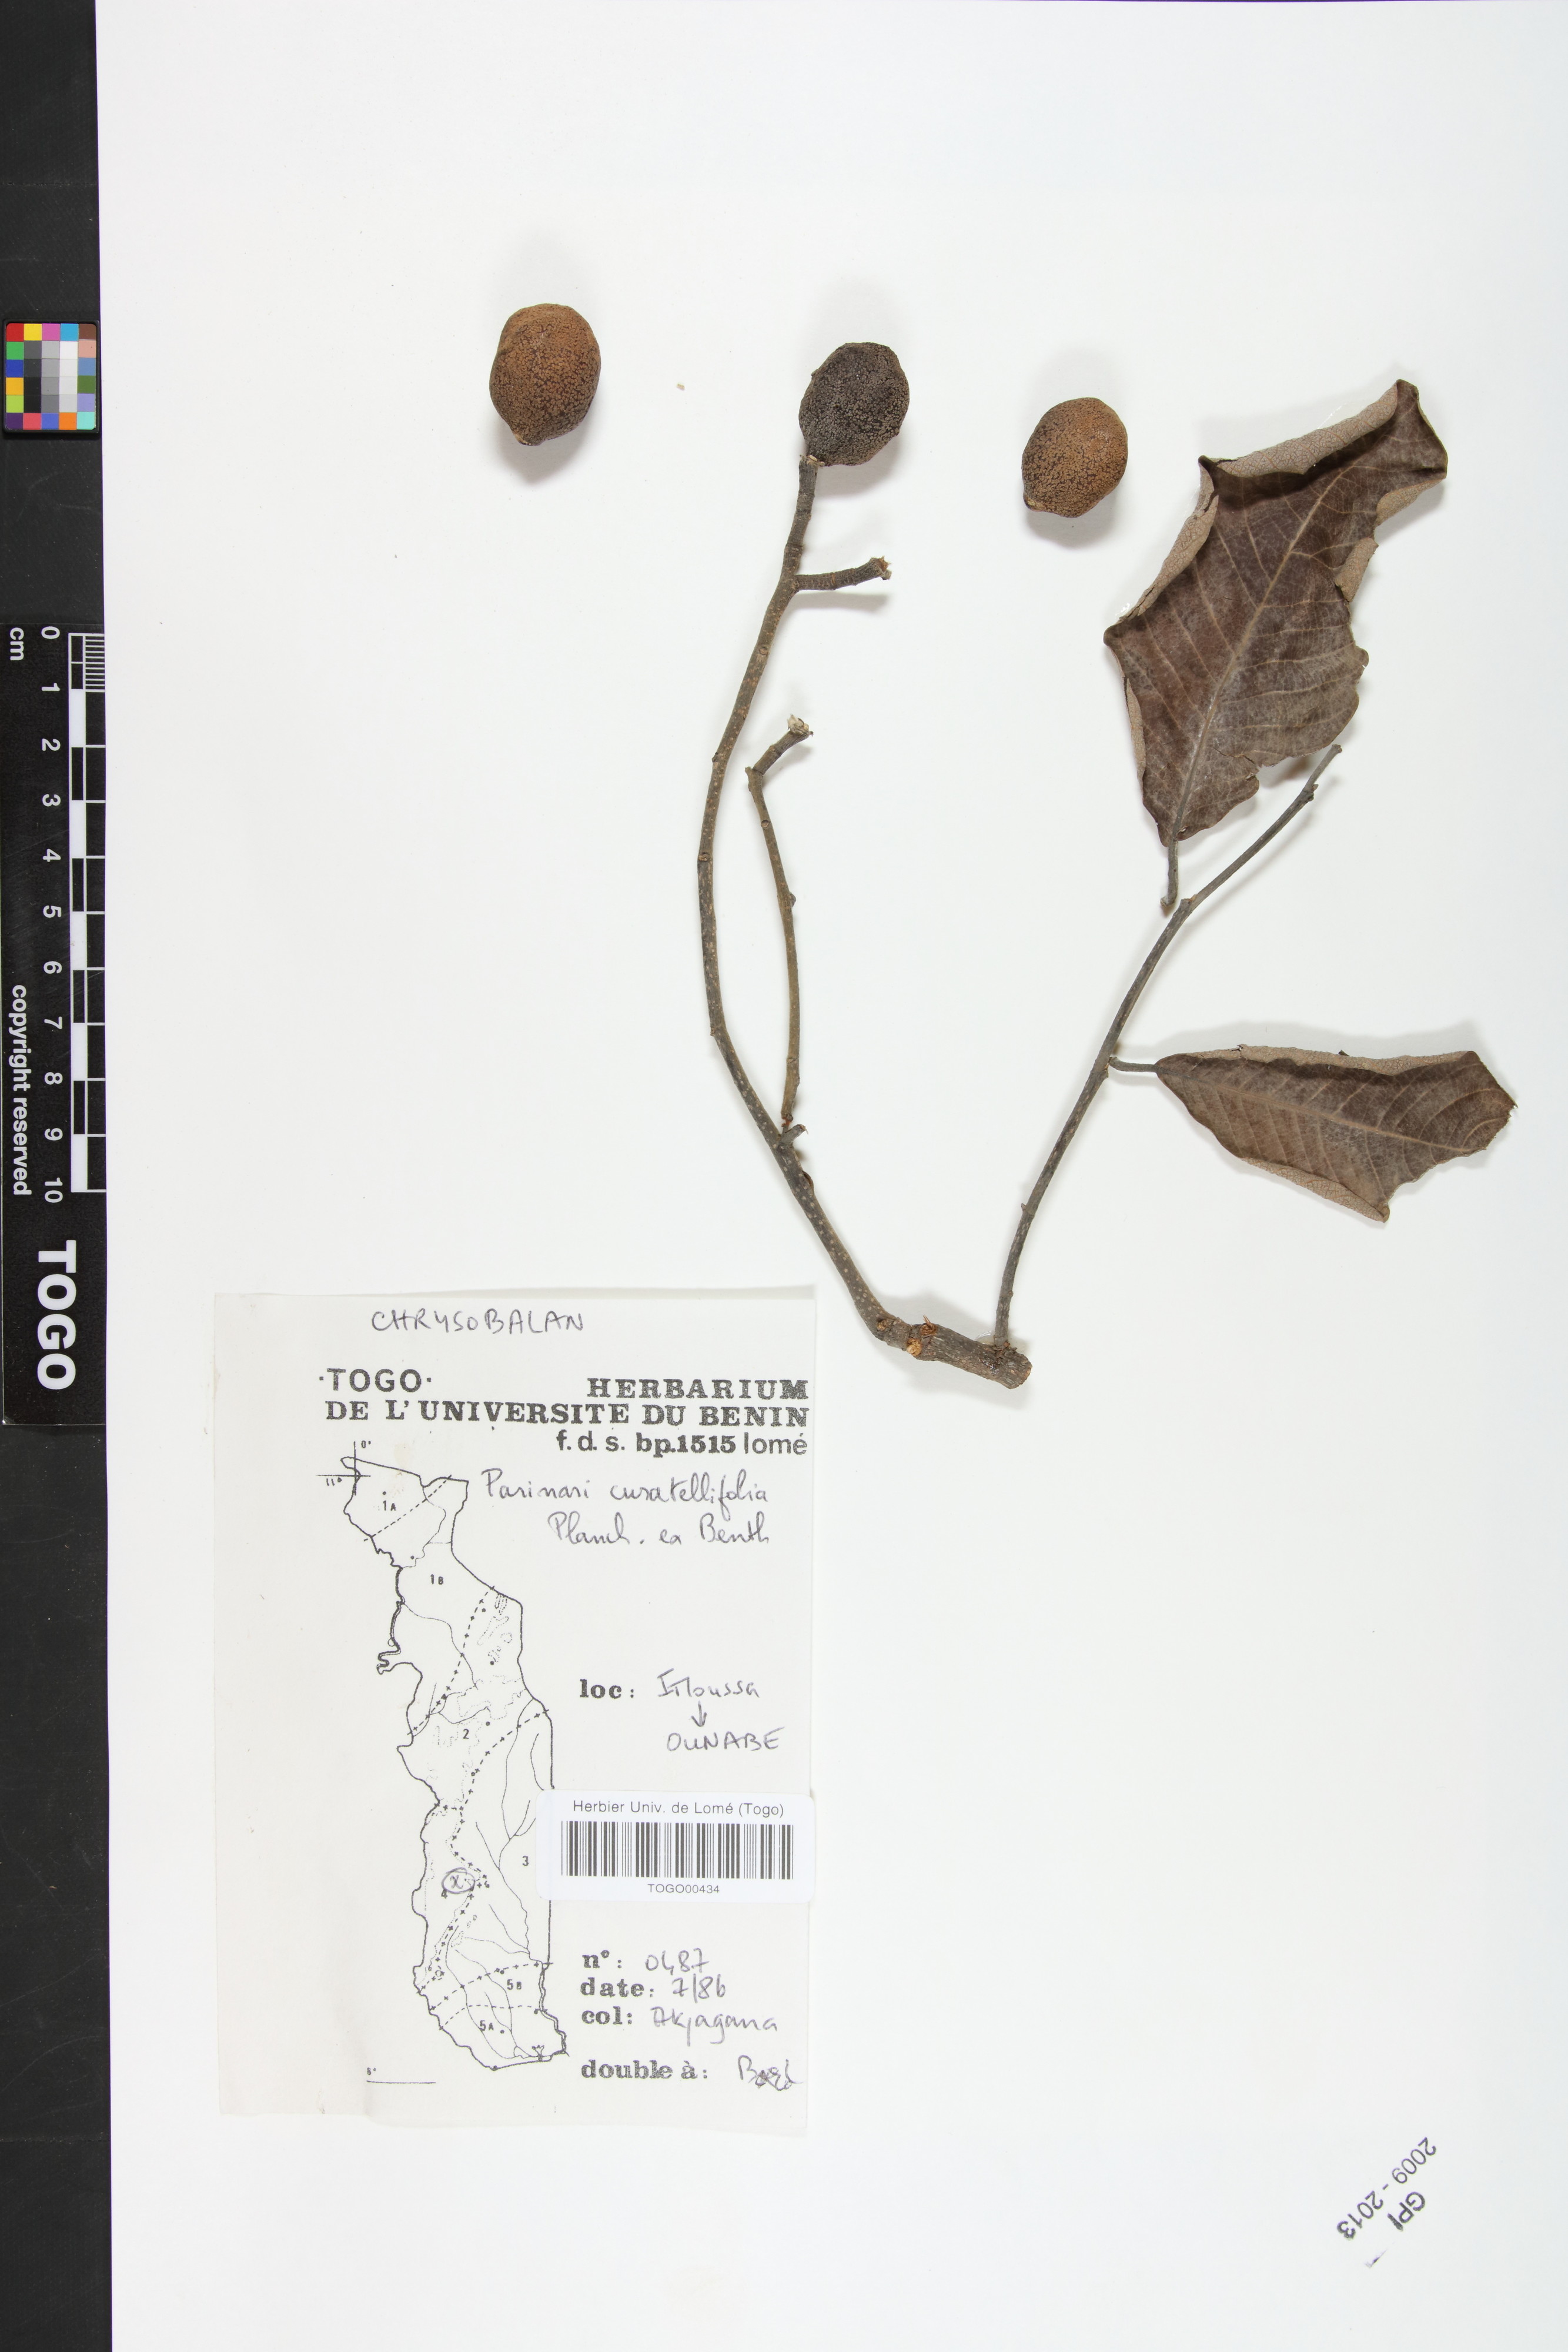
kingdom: Plantae
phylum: Tracheophyta
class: Magnoliopsida
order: Malpighiales
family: Chrysobalanaceae
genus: Parinari
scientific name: Parinari curatellifolia
